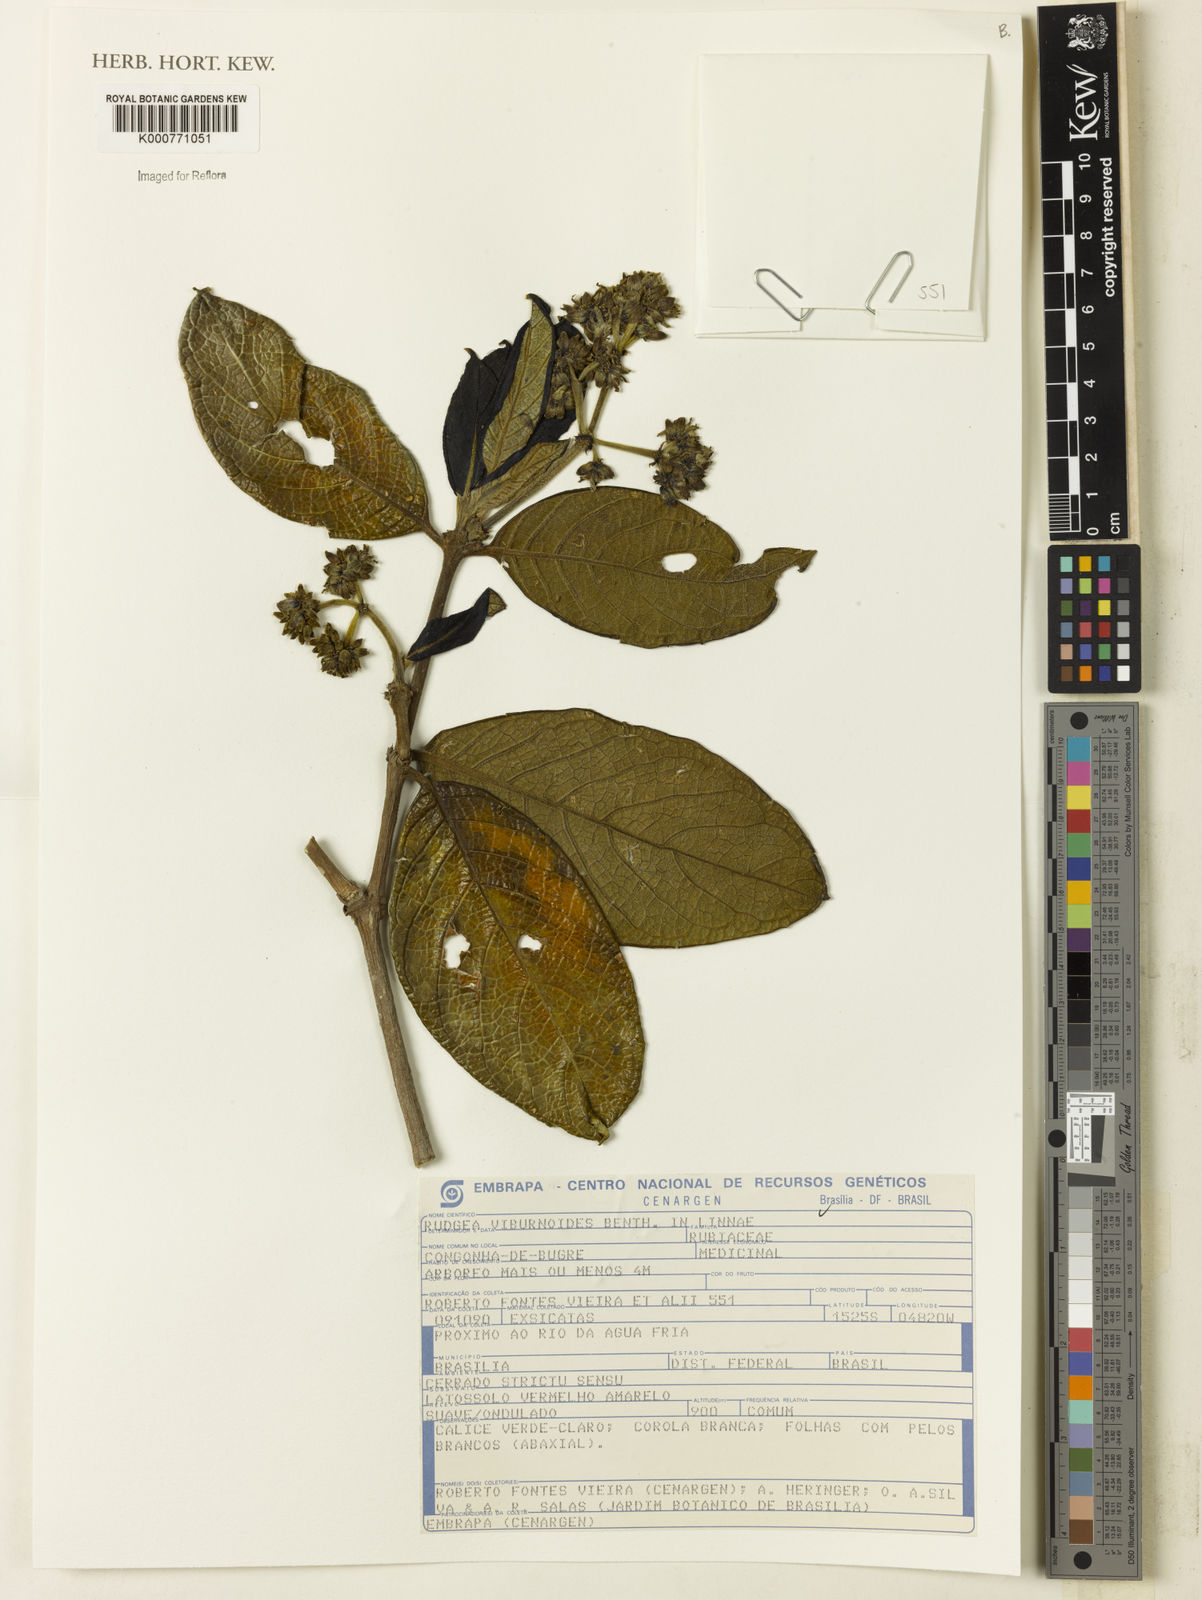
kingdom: Plantae
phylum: Tracheophyta
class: Magnoliopsida
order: Gentianales
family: Rubiaceae
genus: Rudgea
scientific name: Rudgea viburnoides
